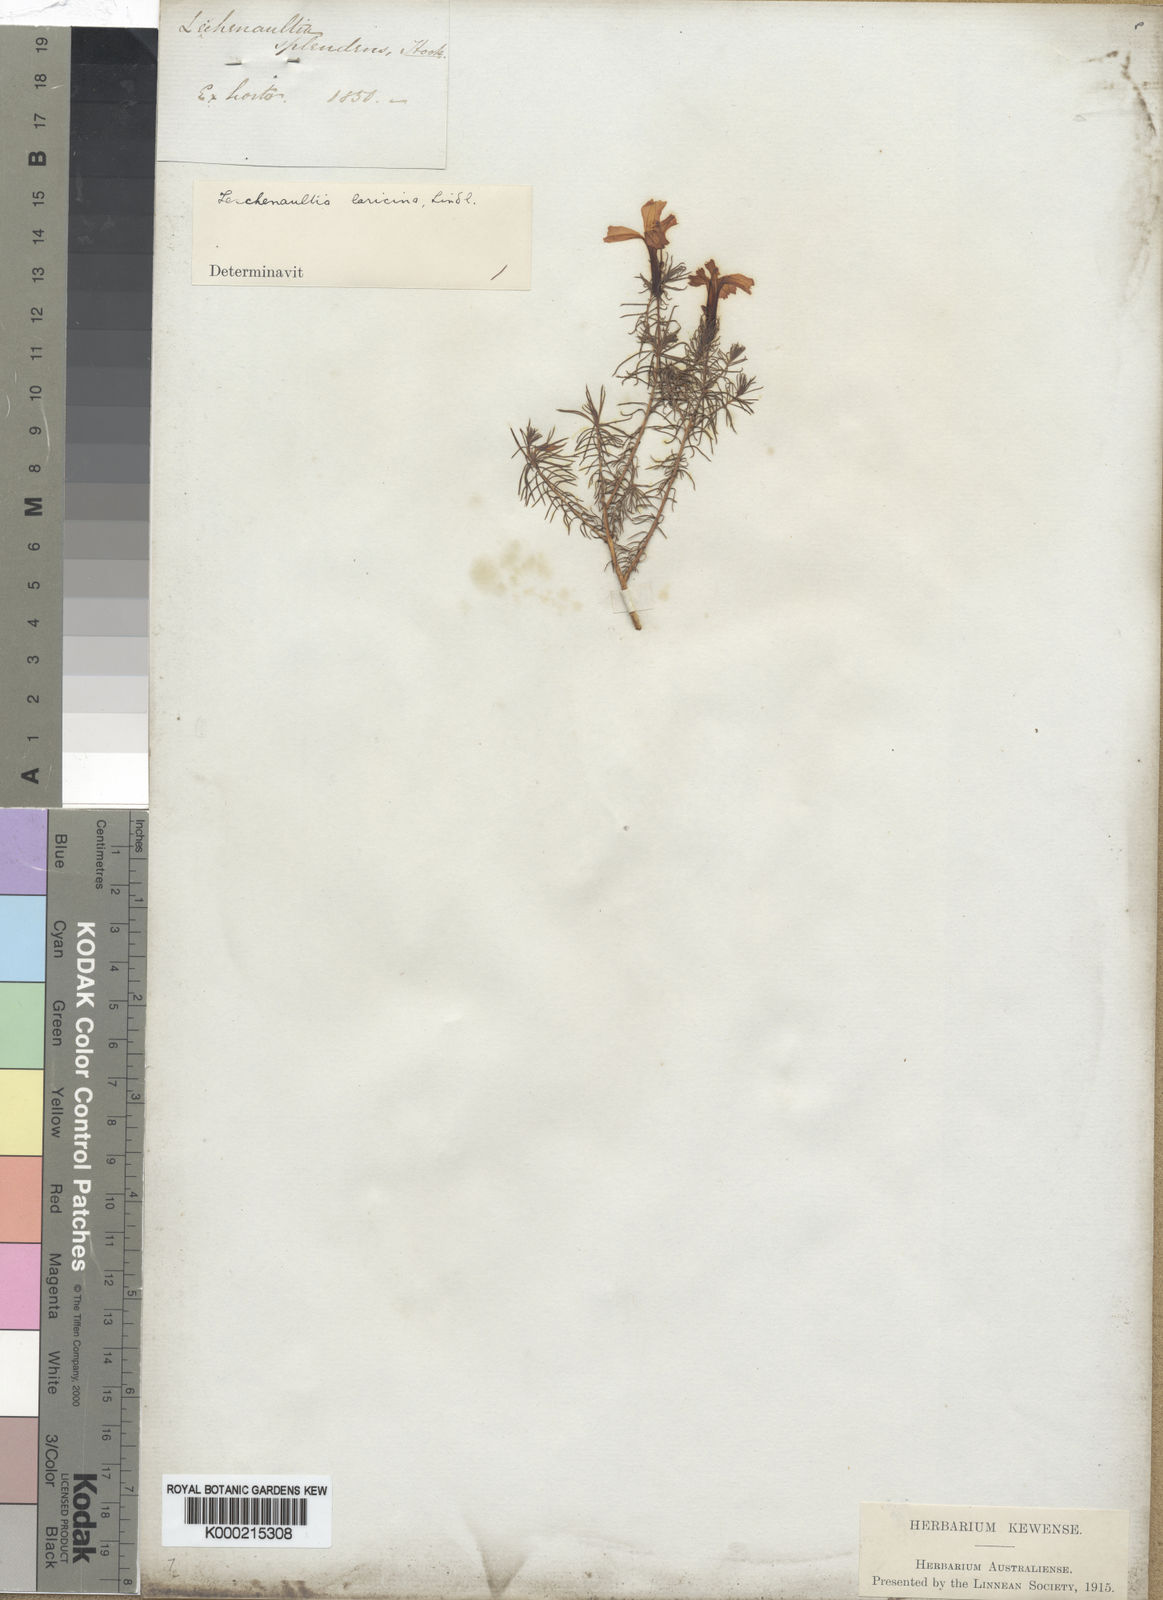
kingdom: Plantae
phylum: Tracheophyta
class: Magnoliopsida
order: Asterales
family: Goodeniaceae
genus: Leschenaultia
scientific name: Leschenaultia
